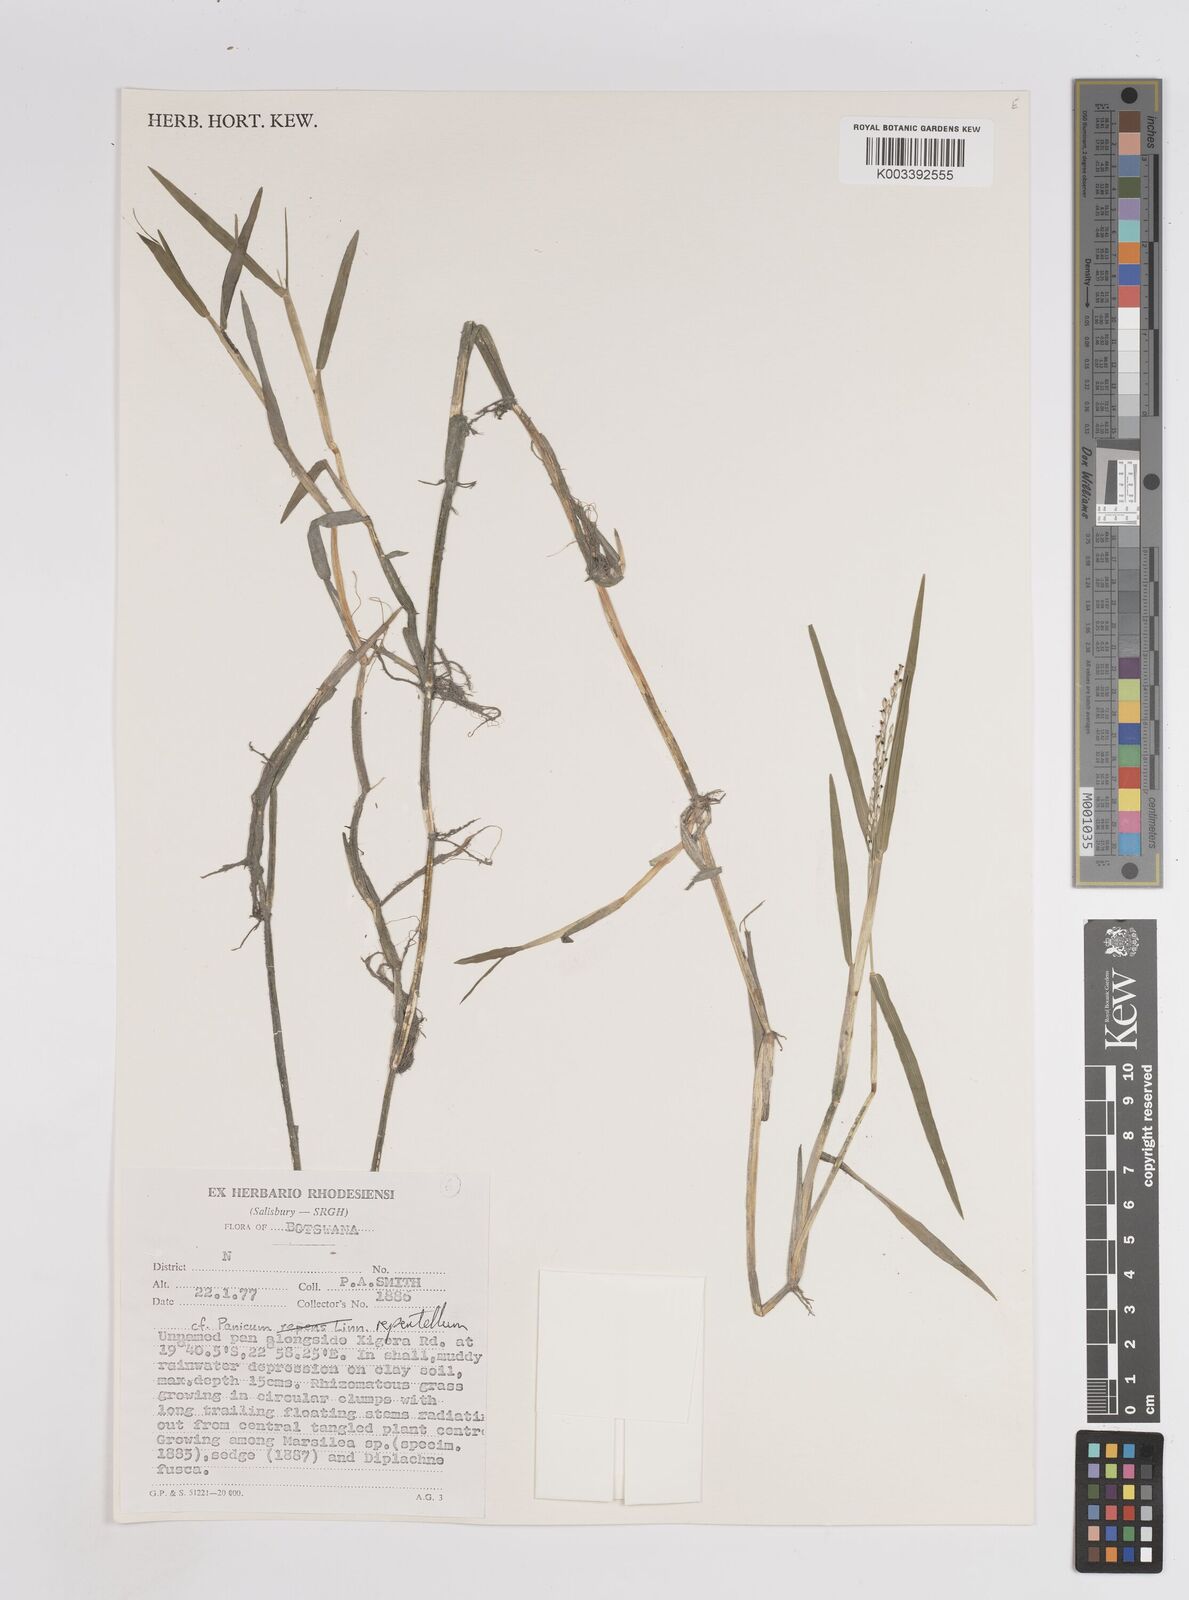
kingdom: Plantae
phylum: Tracheophyta
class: Liliopsida
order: Poales
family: Poaceae
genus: Panicum
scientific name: Panicum hygrocharis
